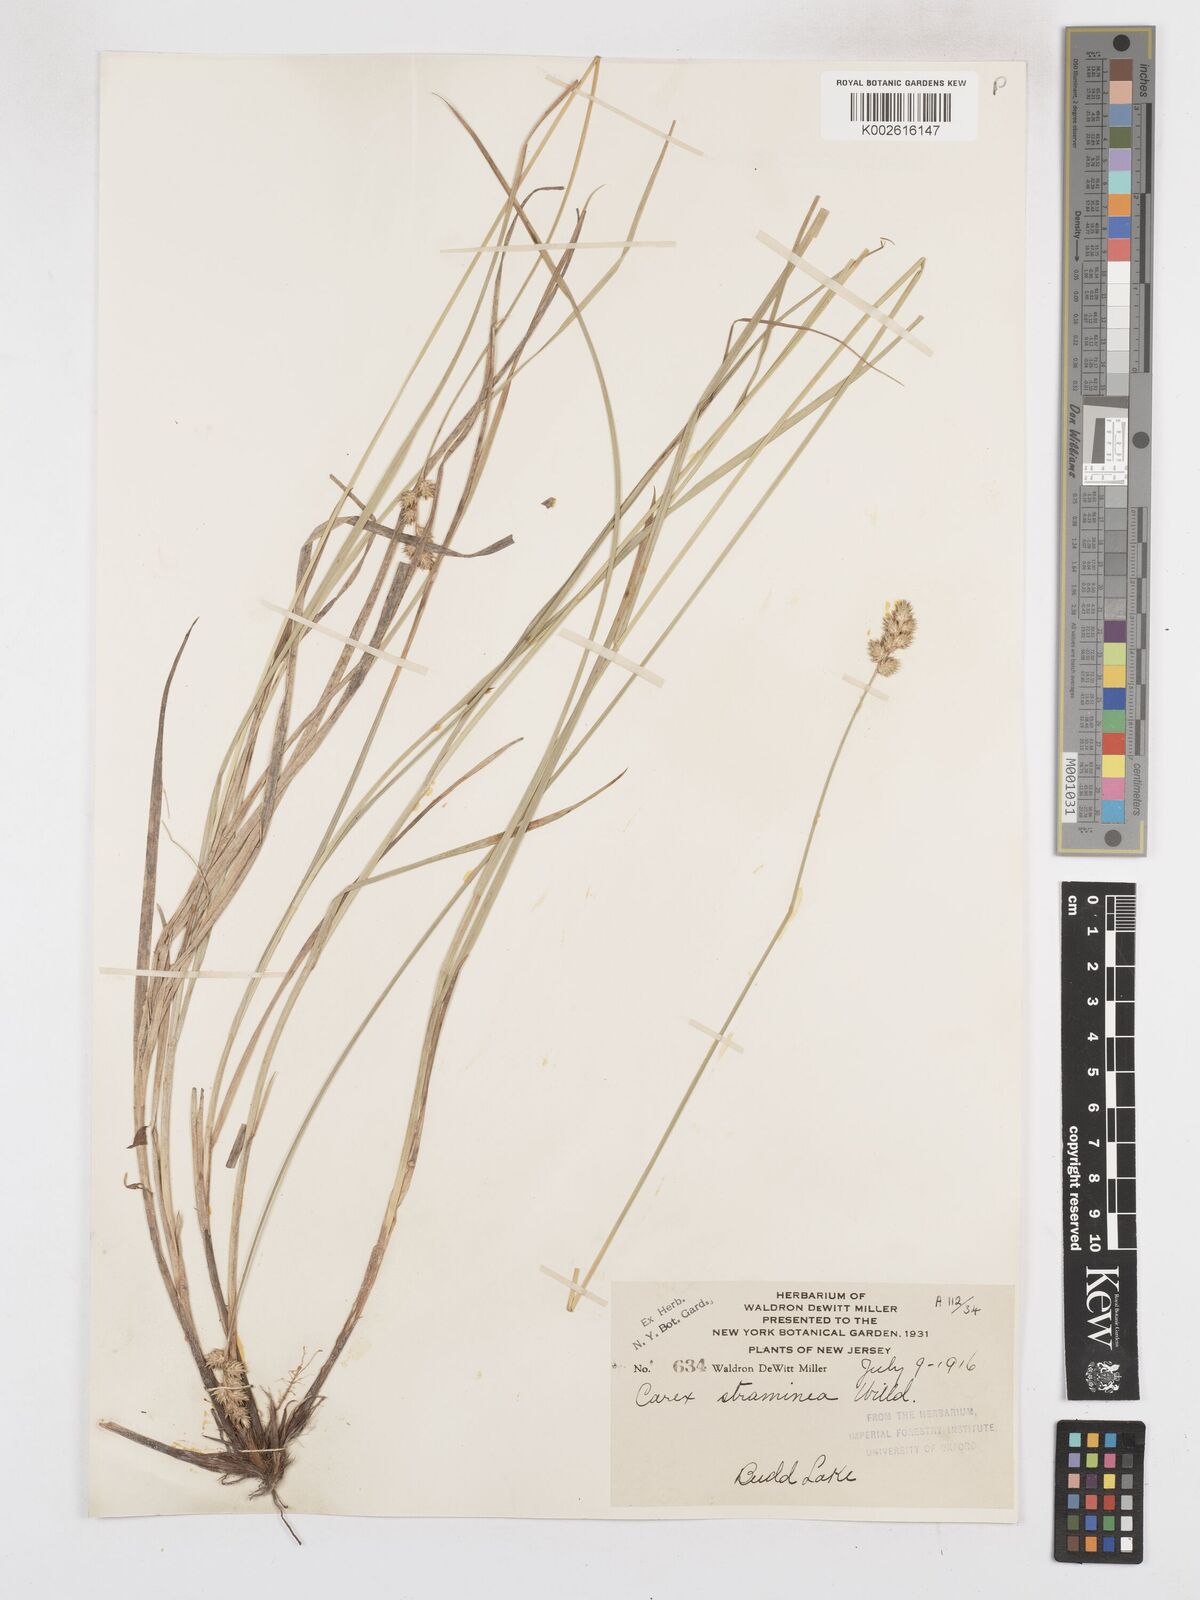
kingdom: Plantae
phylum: Tracheophyta
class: Liliopsida
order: Poales
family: Cyperaceae
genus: Carex
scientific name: Carex brevior
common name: Brevior sedge
